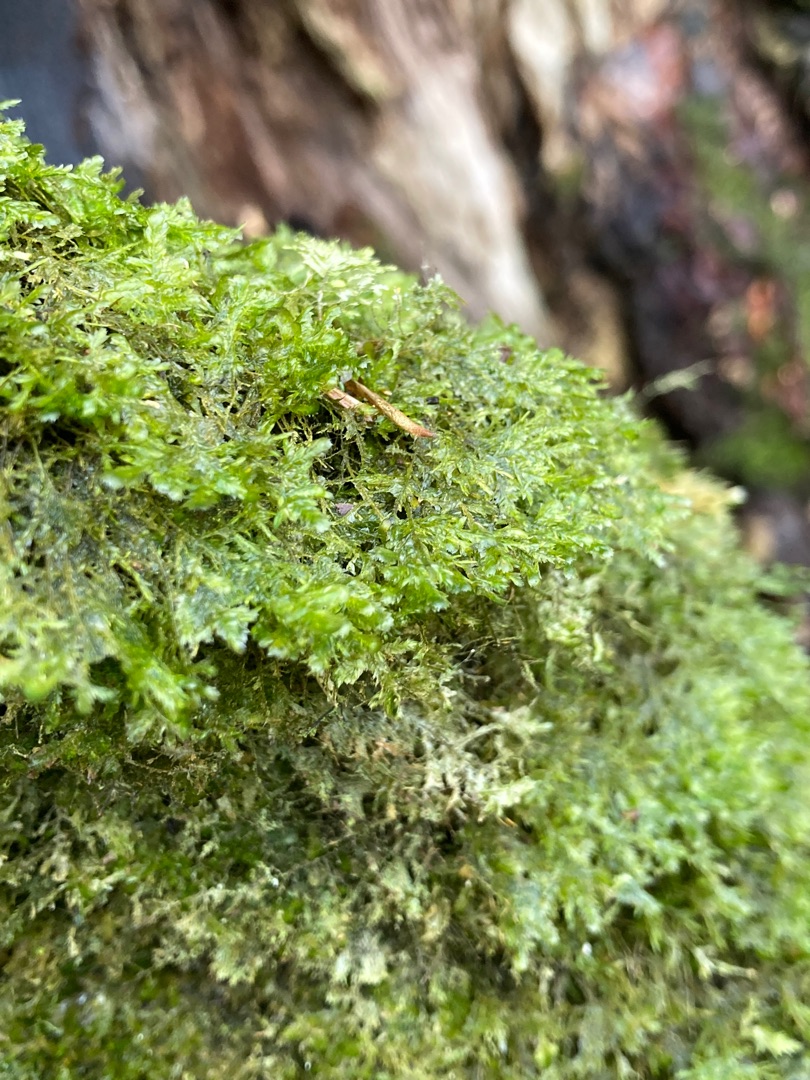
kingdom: Plantae
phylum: Bryophyta
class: Bryopsida
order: Hypnales
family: Neckeraceae
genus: Alleniella
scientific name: Alleniella complanata
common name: Almindelig fladmos
